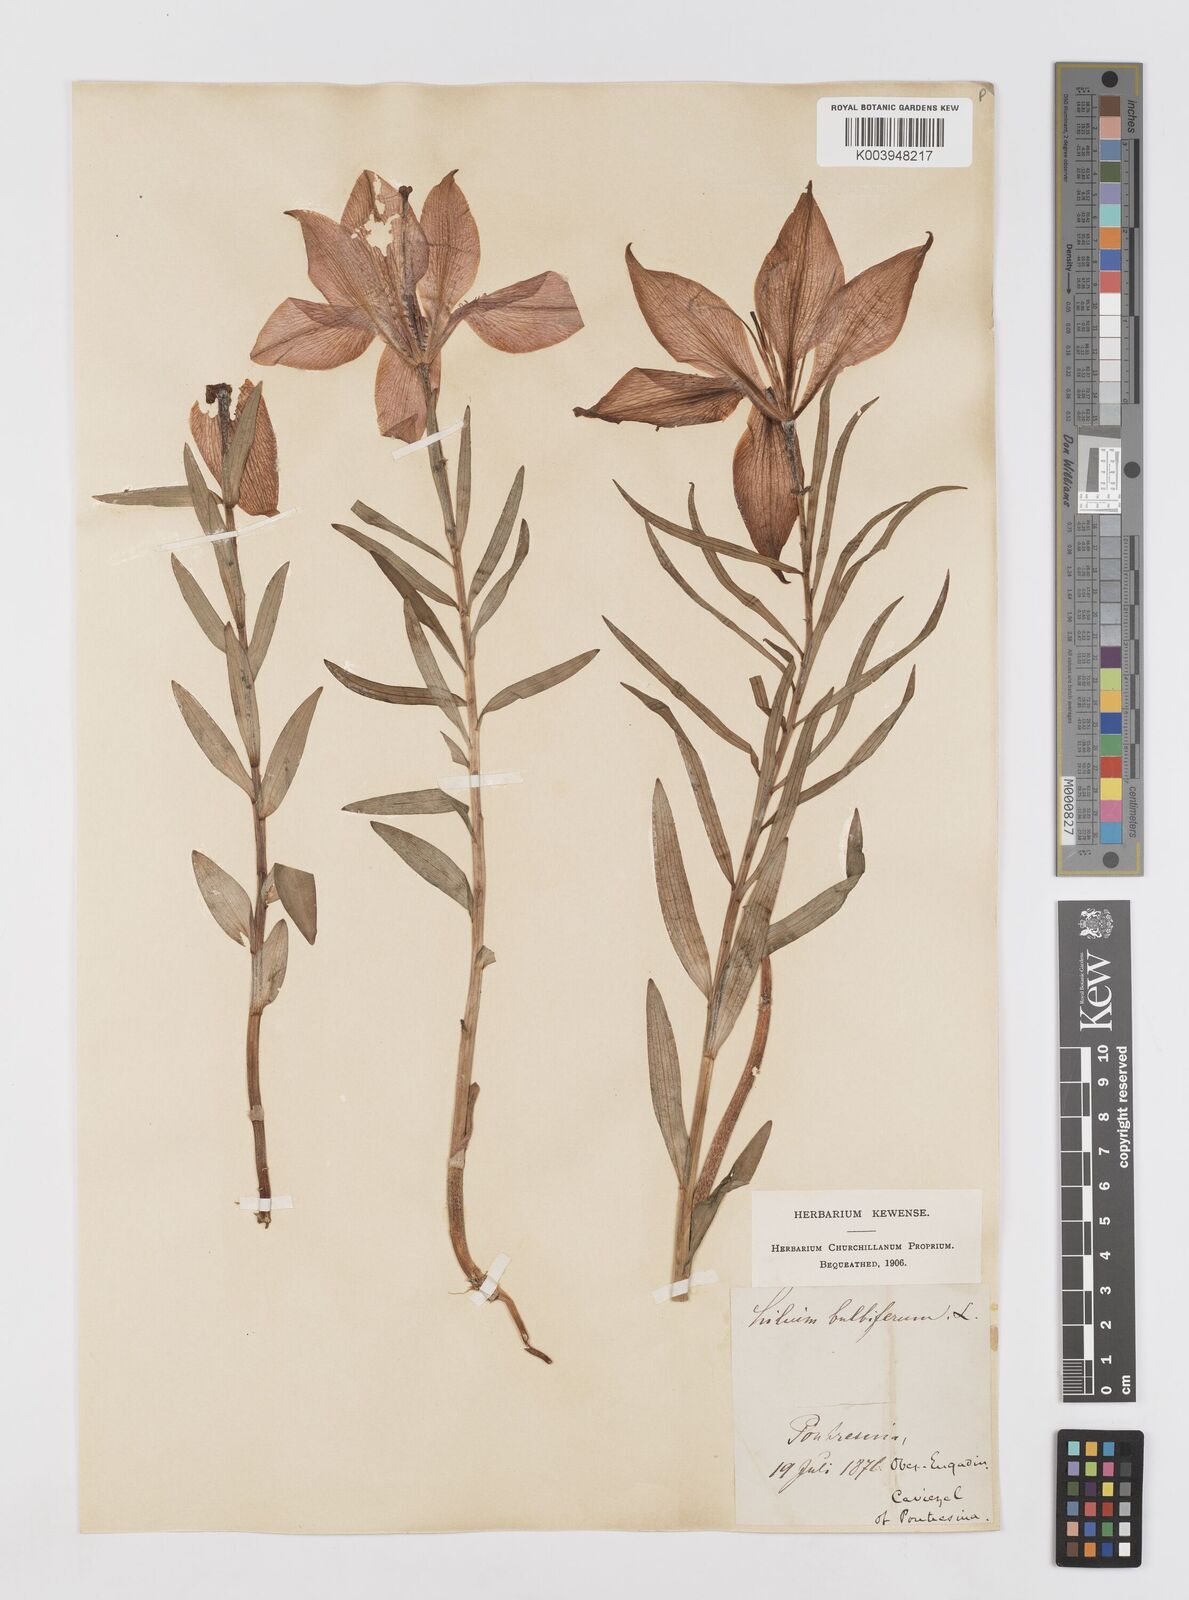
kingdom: Plantae
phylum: Tracheophyta
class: Liliopsida
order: Liliales
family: Liliaceae
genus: Lilium
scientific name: Lilium bulbiferum
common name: Orange lily
